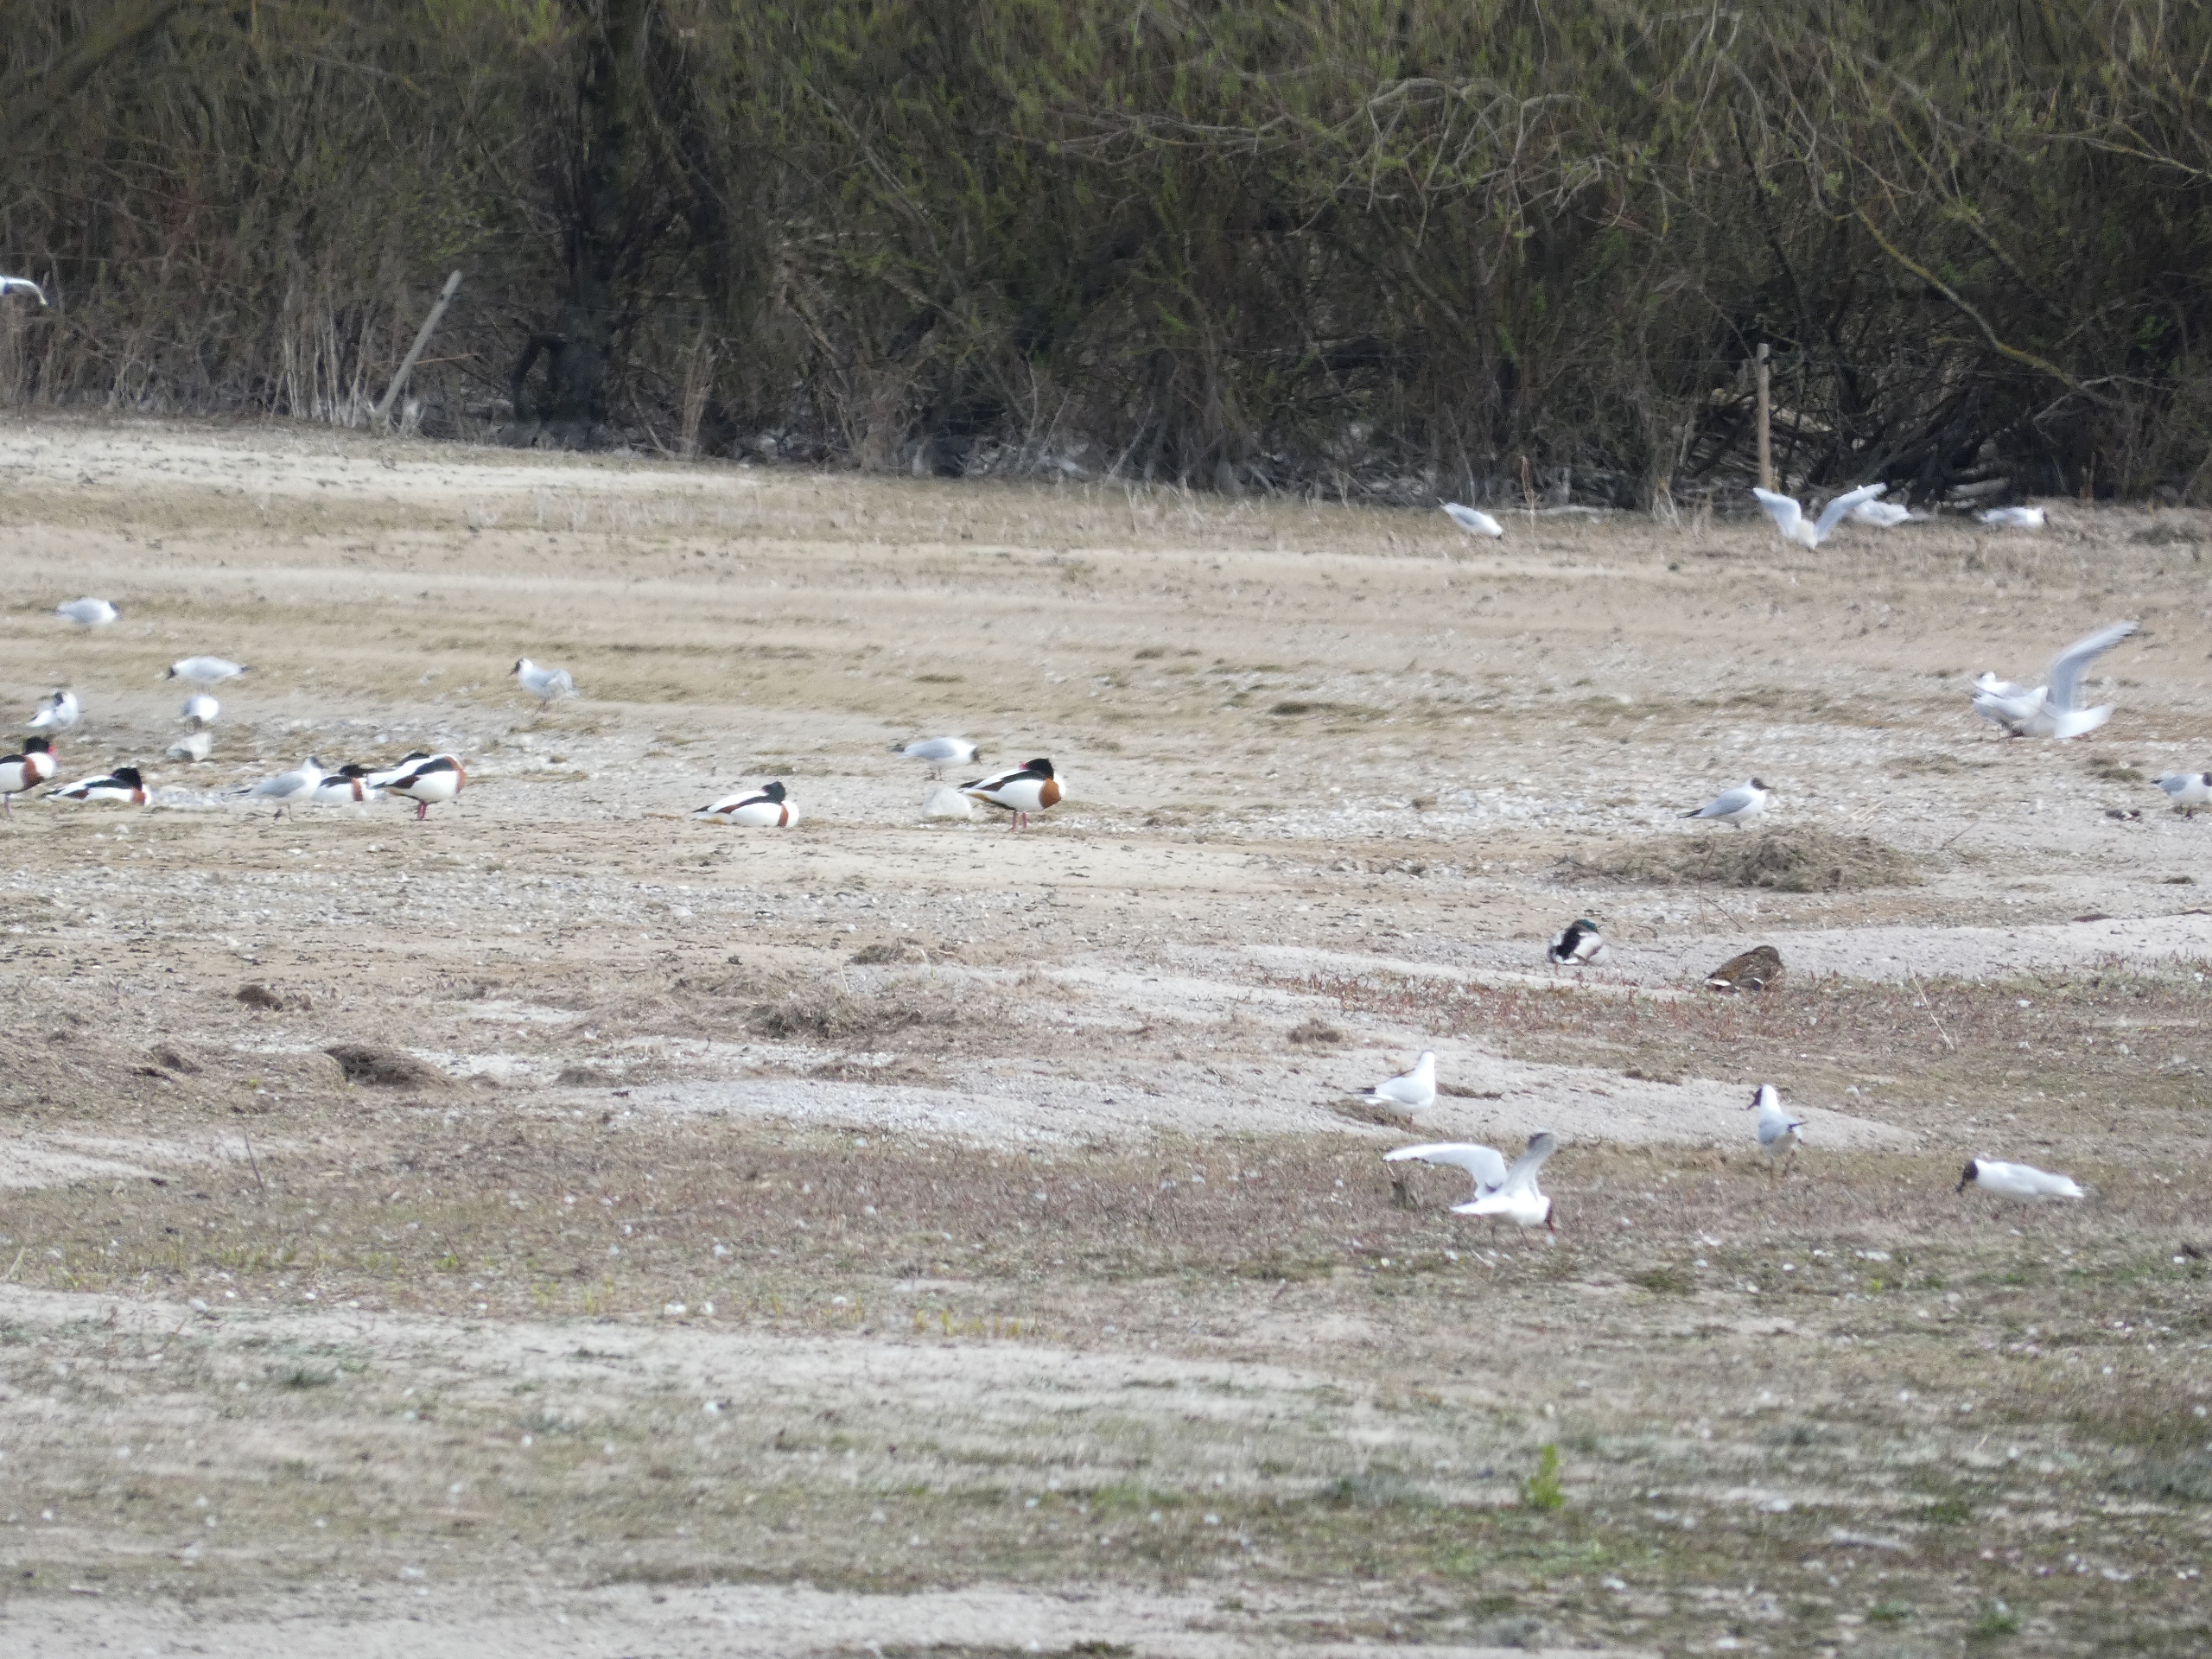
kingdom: Animalia
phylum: Chordata
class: Aves
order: Anseriformes
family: Anatidae
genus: Anas
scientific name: Anas platyrhynchos
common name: Gråand
